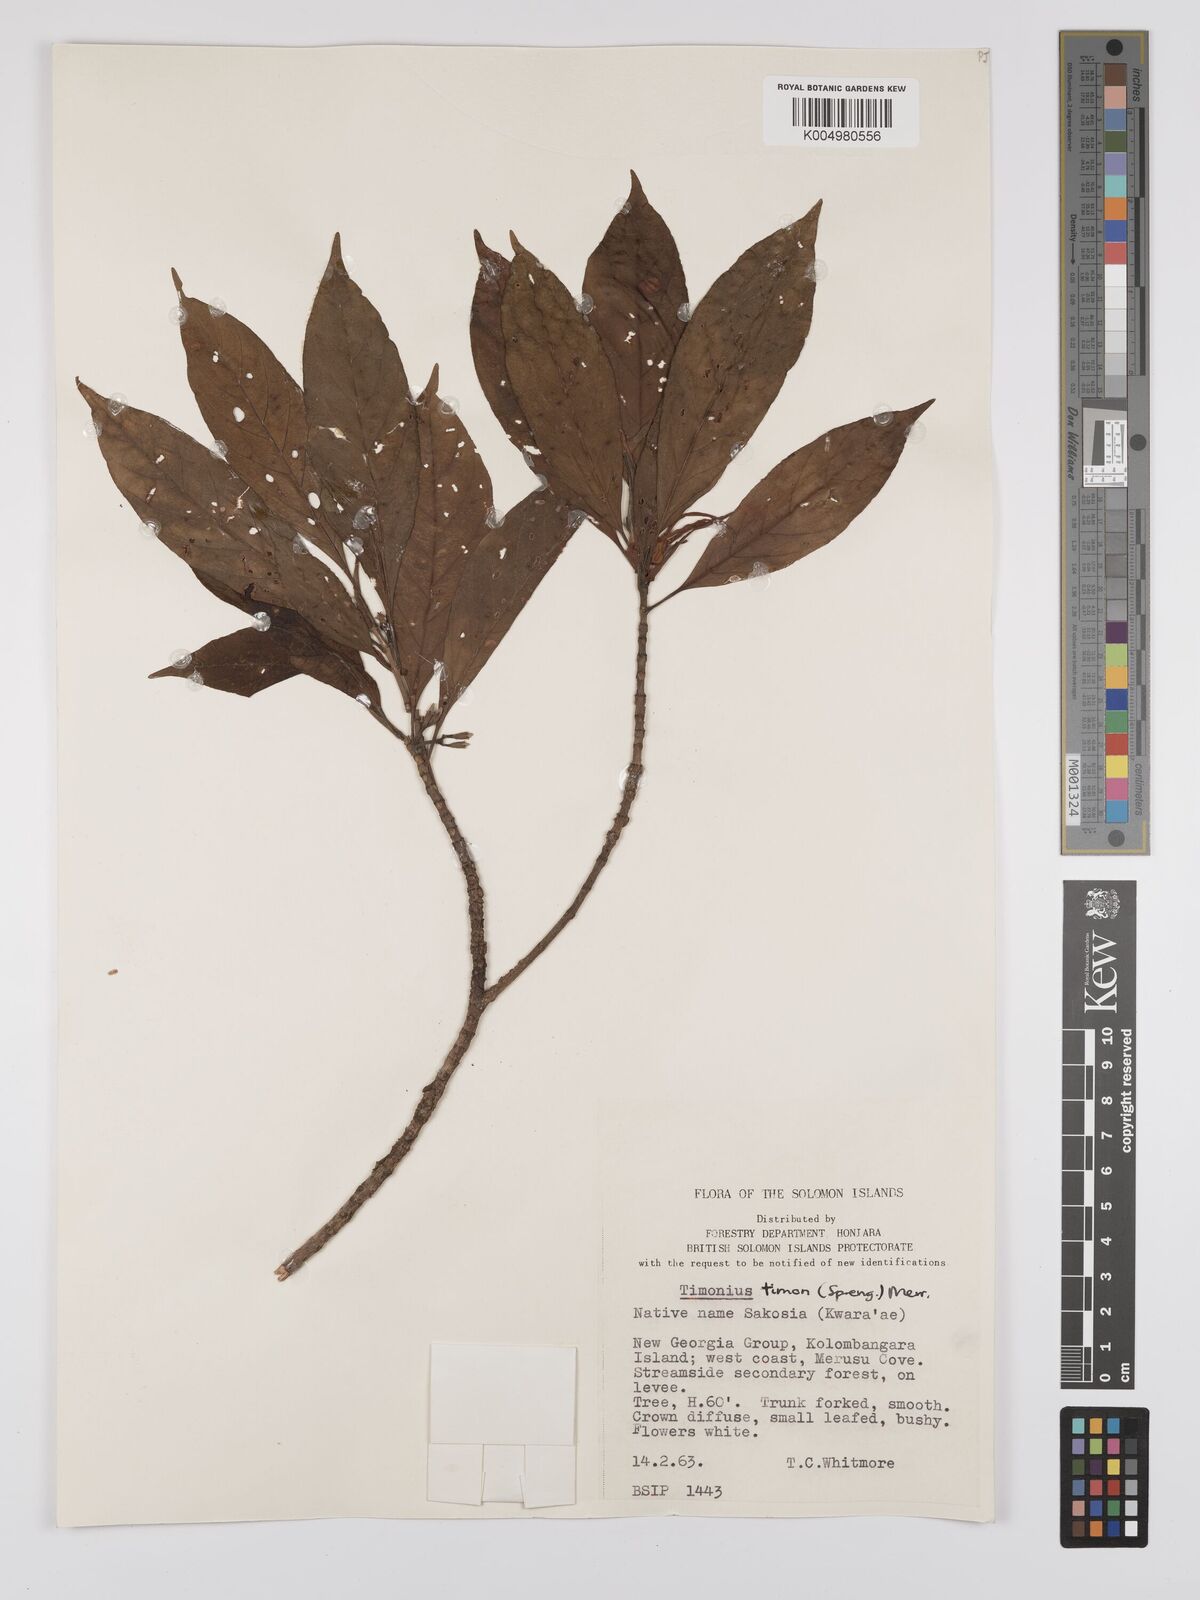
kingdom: Plantae
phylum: Tracheophyta
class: Magnoliopsida
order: Gentianales
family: Rubiaceae
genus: Timonius
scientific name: Timonius timon
